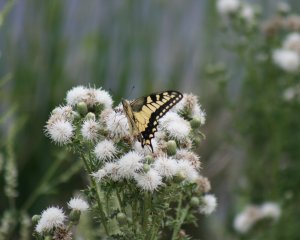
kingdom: Animalia
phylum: Arthropoda
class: Insecta
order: Lepidoptera
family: Papilionidae
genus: Pterourus
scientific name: Pterourus rutulus
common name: Western Tiger Swallowtail
